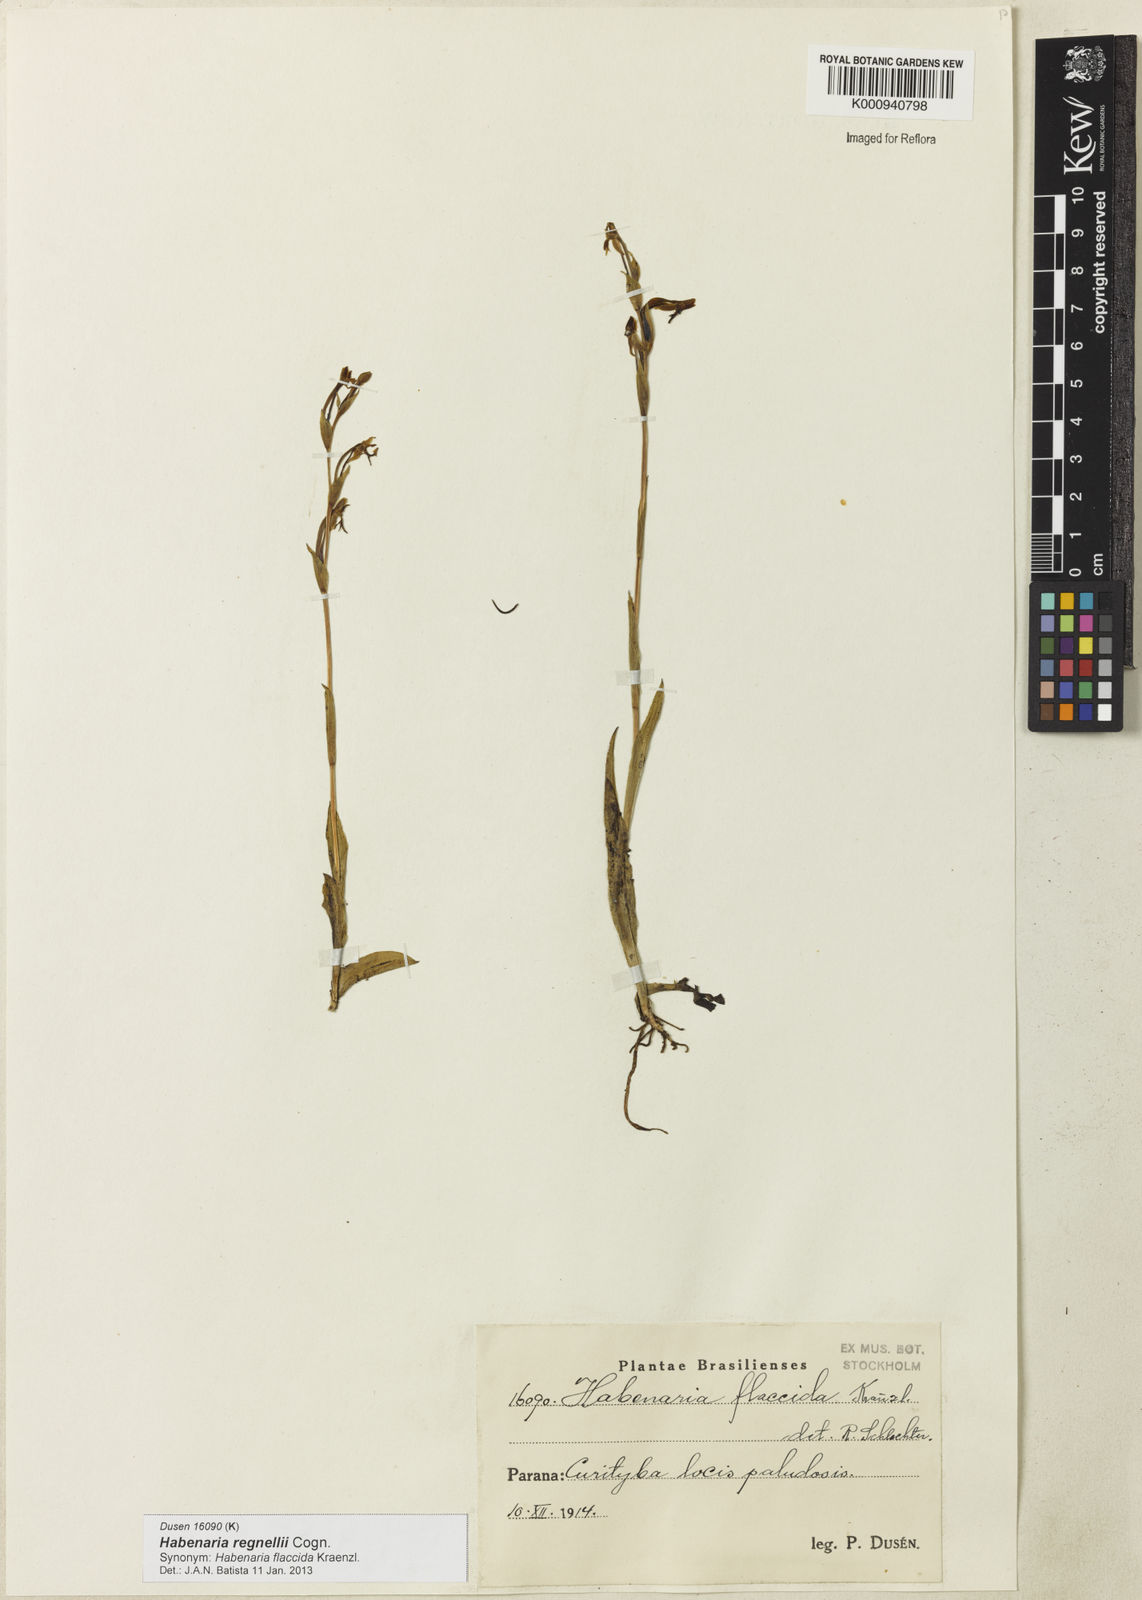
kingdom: Plantae
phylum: Tracheophyta
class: Liliopsida
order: Asparagales
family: Orchidaceae
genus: Habenaria
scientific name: Habenaria regnellii
